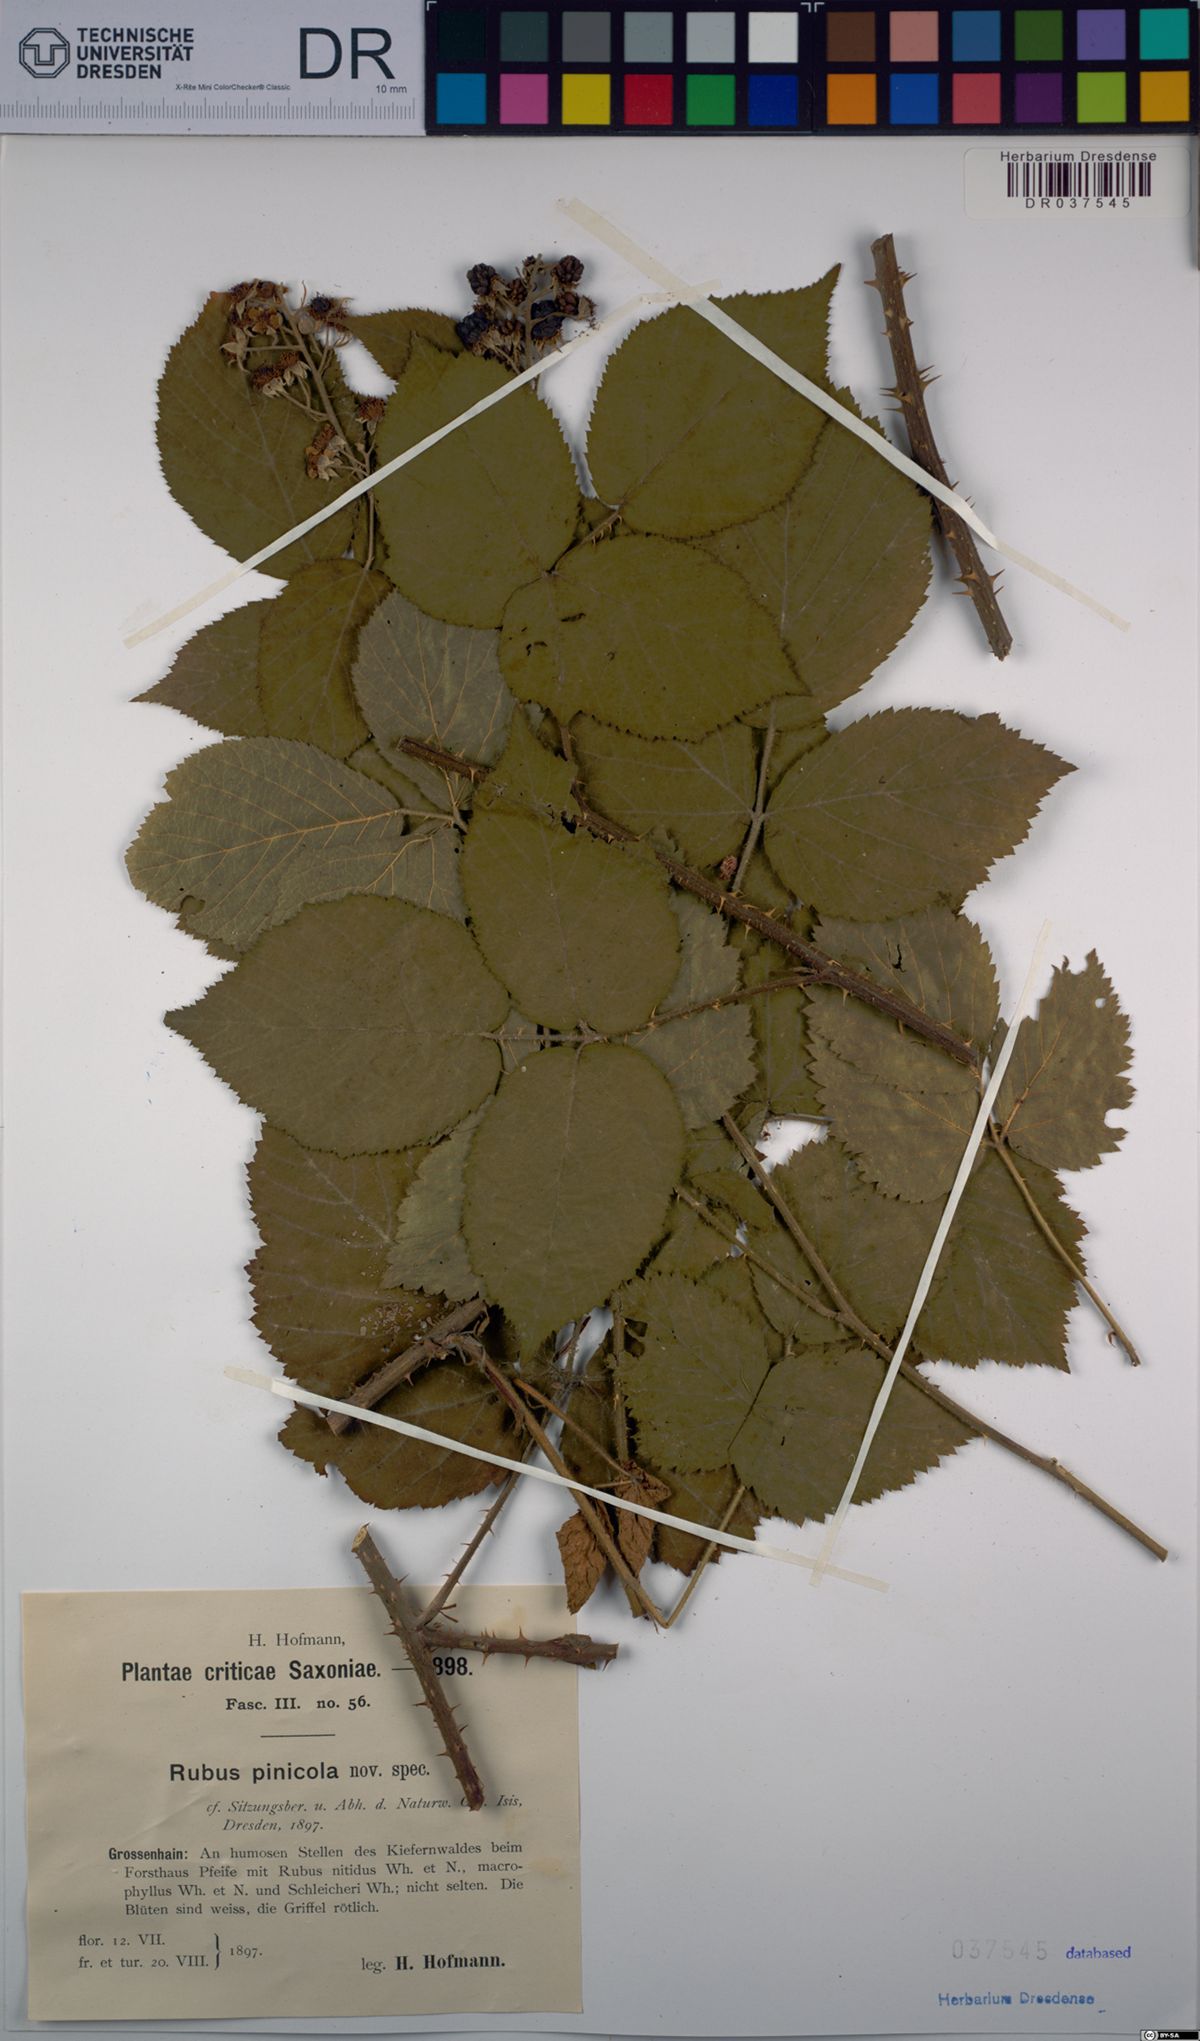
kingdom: Plantae
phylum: Tracheophyta
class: Magnoliopsida
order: Rosales
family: Rosaceae
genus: Rubus
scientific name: Rubus pinicola
